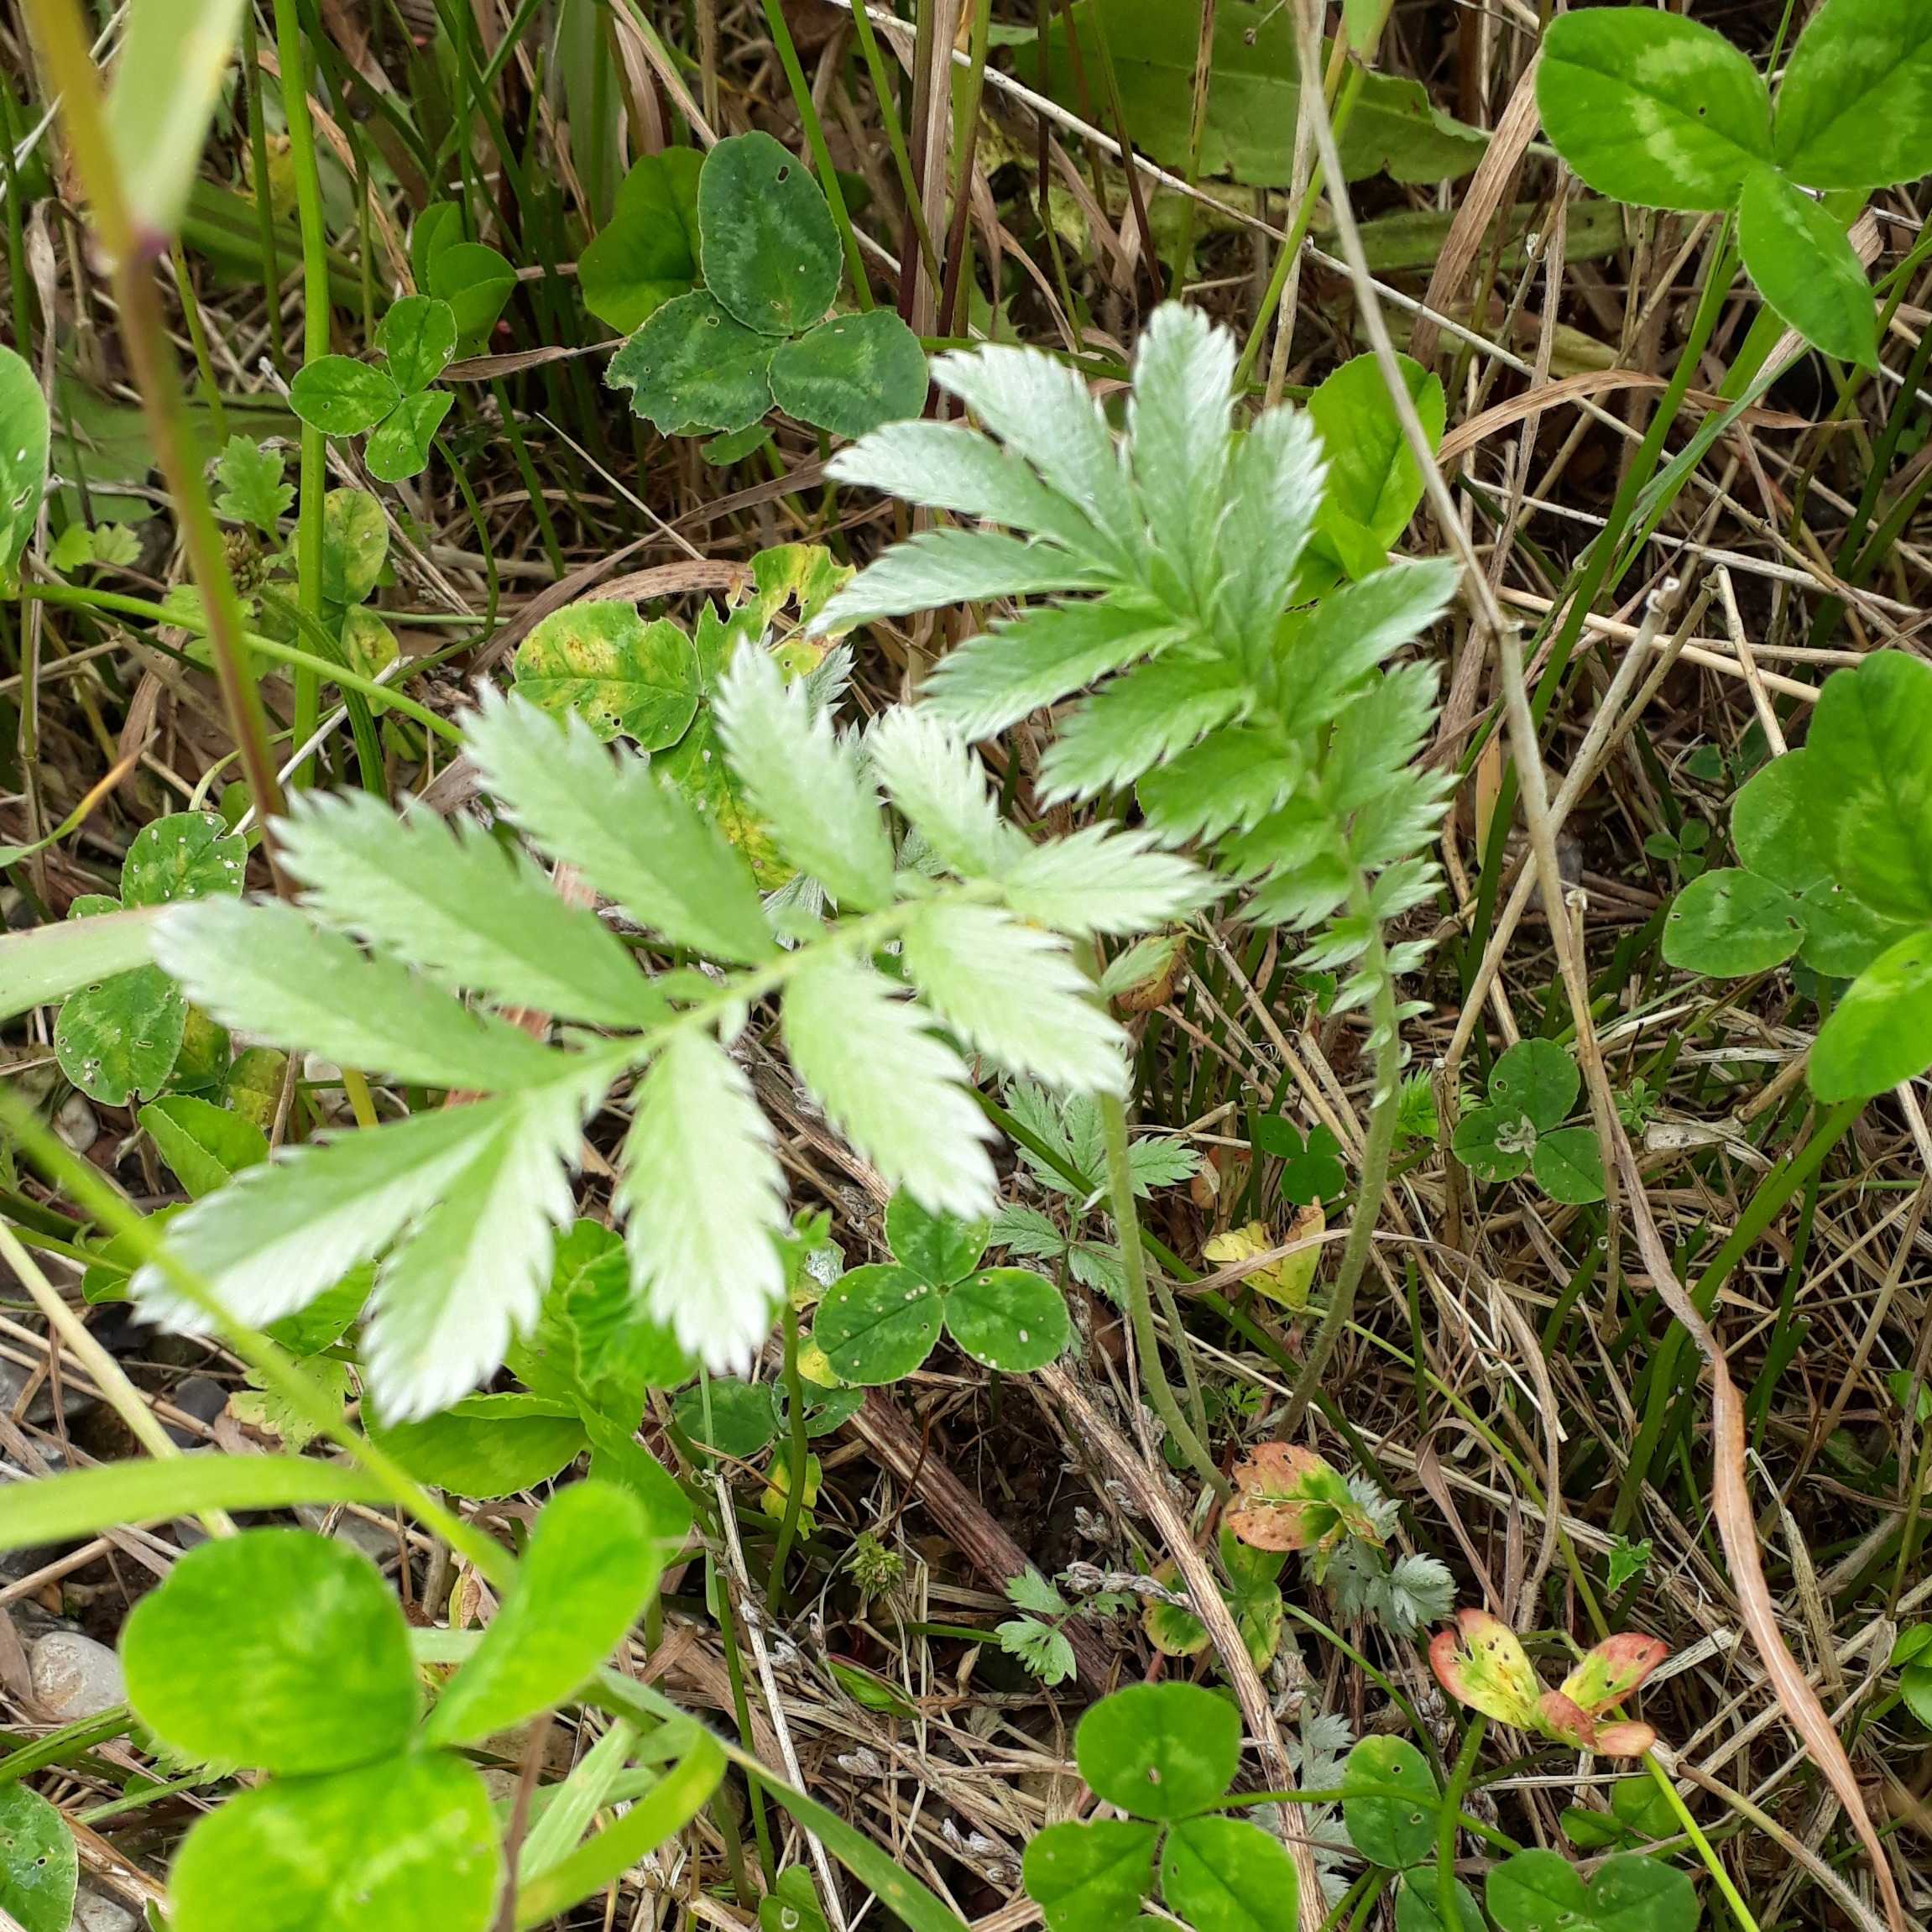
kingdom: Plantae
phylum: Tracheophyta
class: Magnoliopsida
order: Rosales
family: Rosaceae
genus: Argentina
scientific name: Argentina anserina
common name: Gåsepotentil
